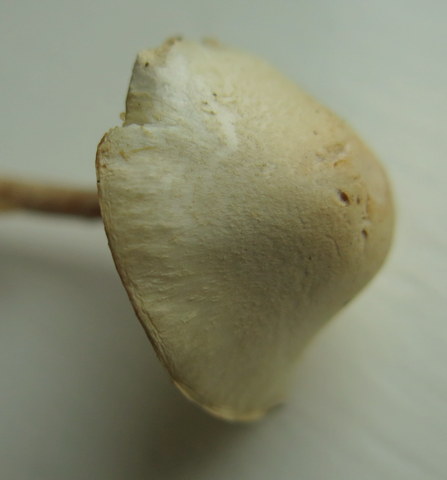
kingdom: Fungi
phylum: Basidiomycota
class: Agaricomycetes
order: Agaricales
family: Agaricaceae
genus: Lepiota
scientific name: Lepiota subalba
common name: hvidlig parasolhat
